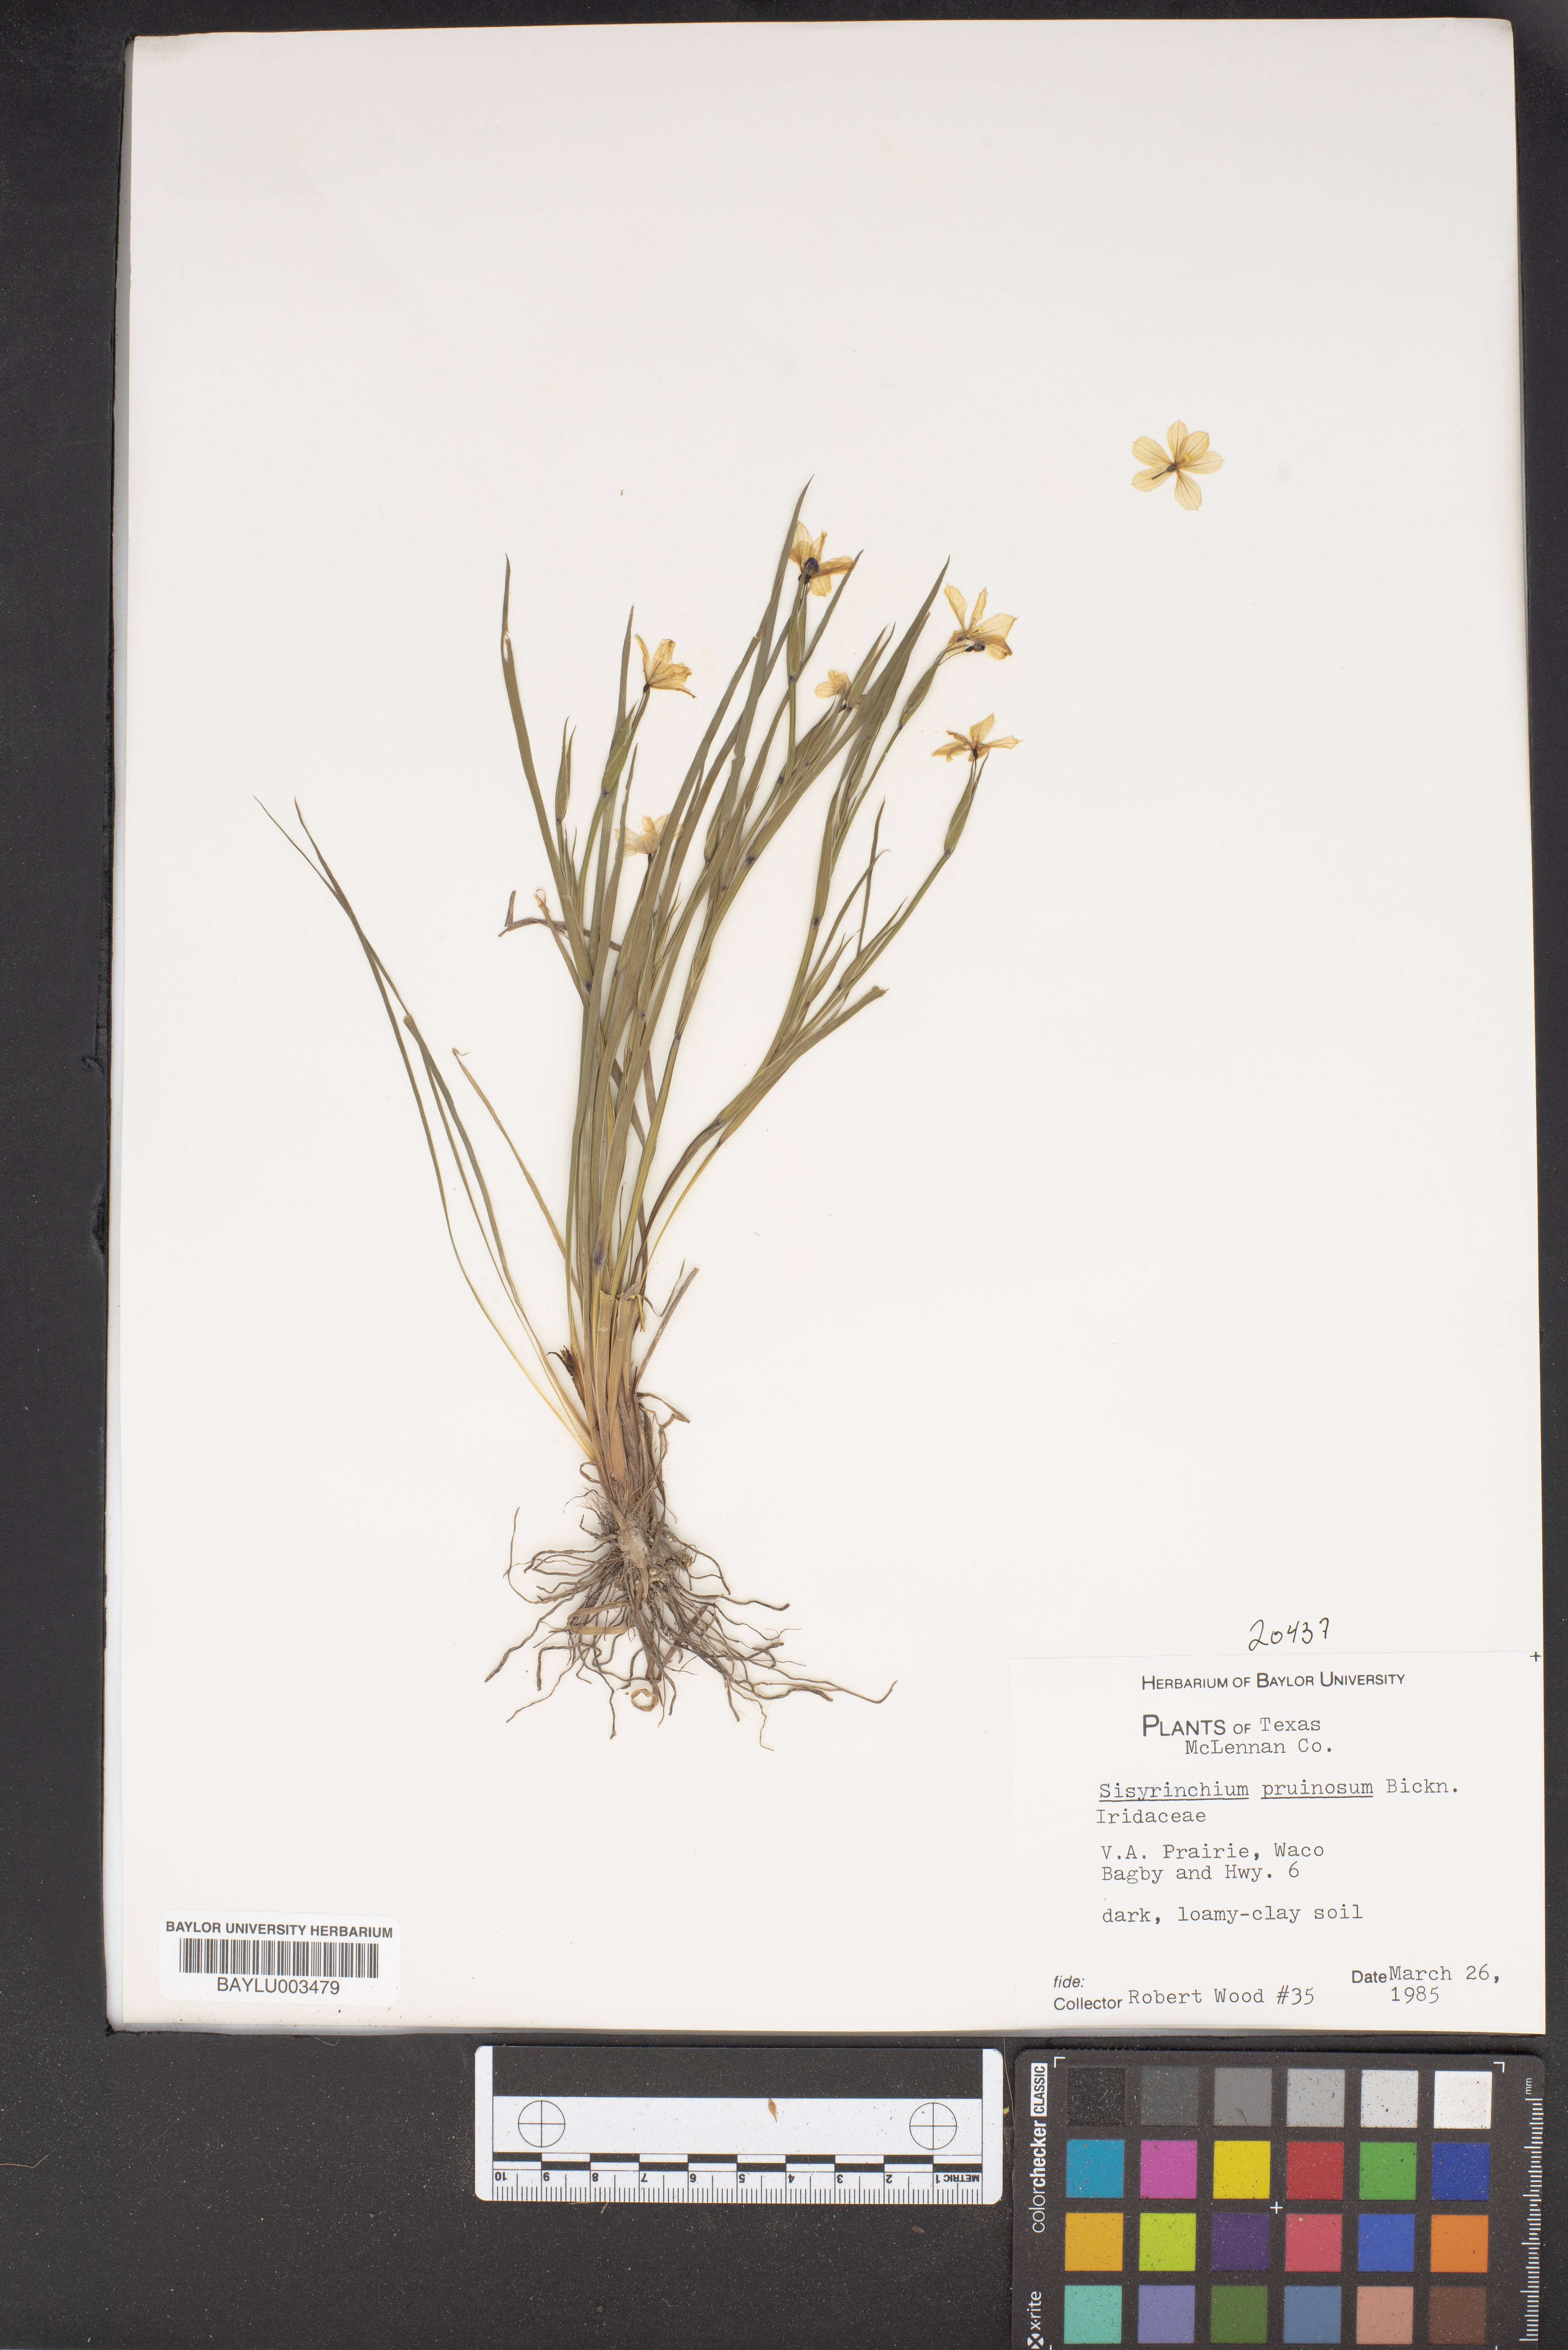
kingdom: Plantae
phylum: Tracheophyta
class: Liliopsida
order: Asparagales
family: Iridaceae
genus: Sisyrinchium
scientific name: Sisyrinchium pruinosum
